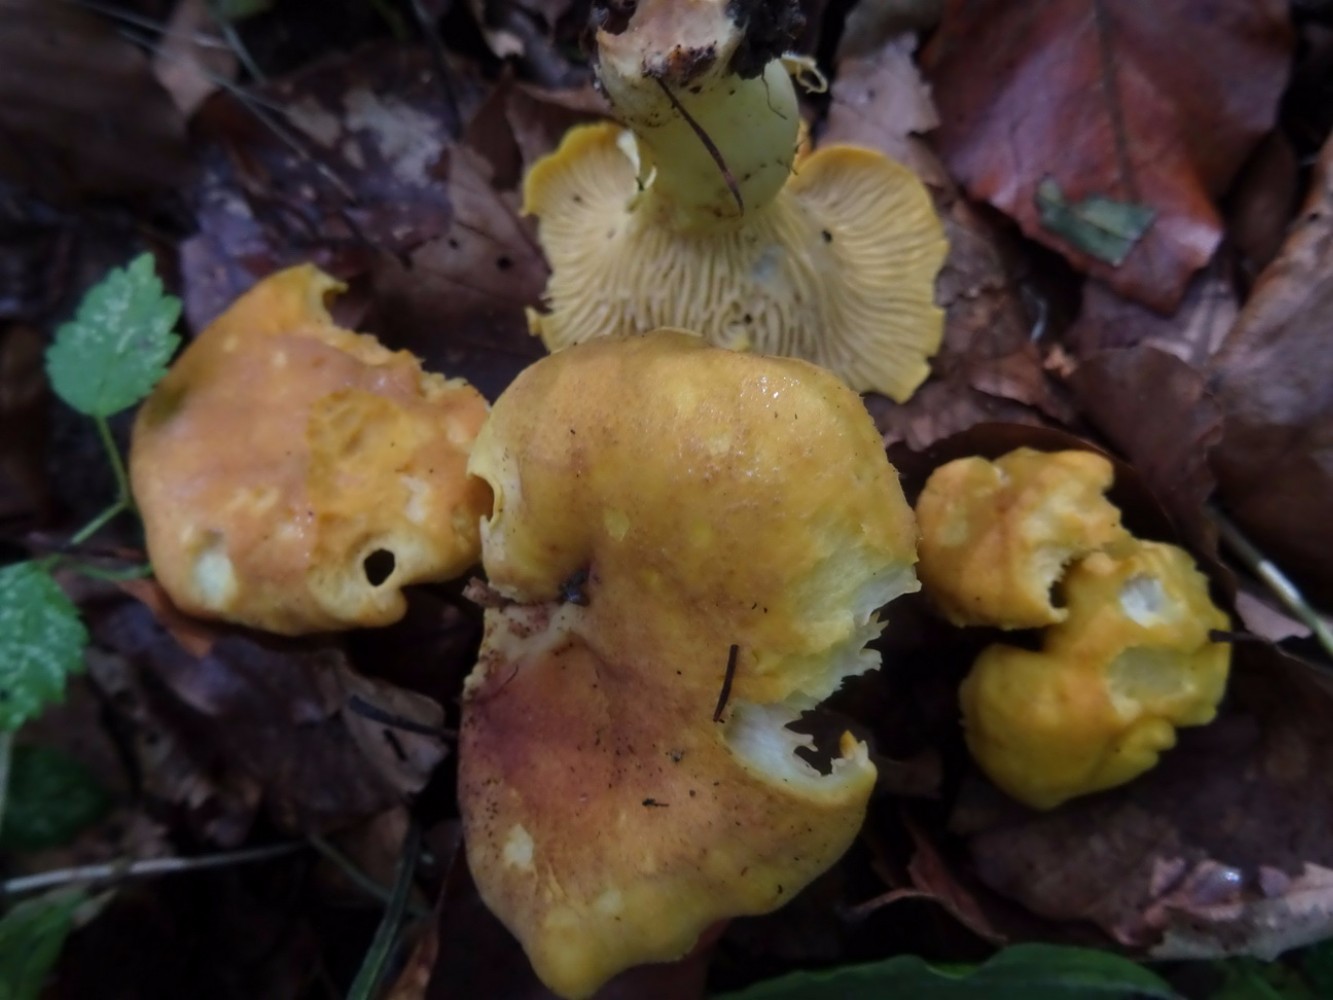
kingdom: Fungi
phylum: Basidiomycota
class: Agaricomycetes
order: Cantharellales
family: Hydnaceae
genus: Cantharellus
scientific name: Cantharellus amethysteus
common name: ametyst-kantarel
